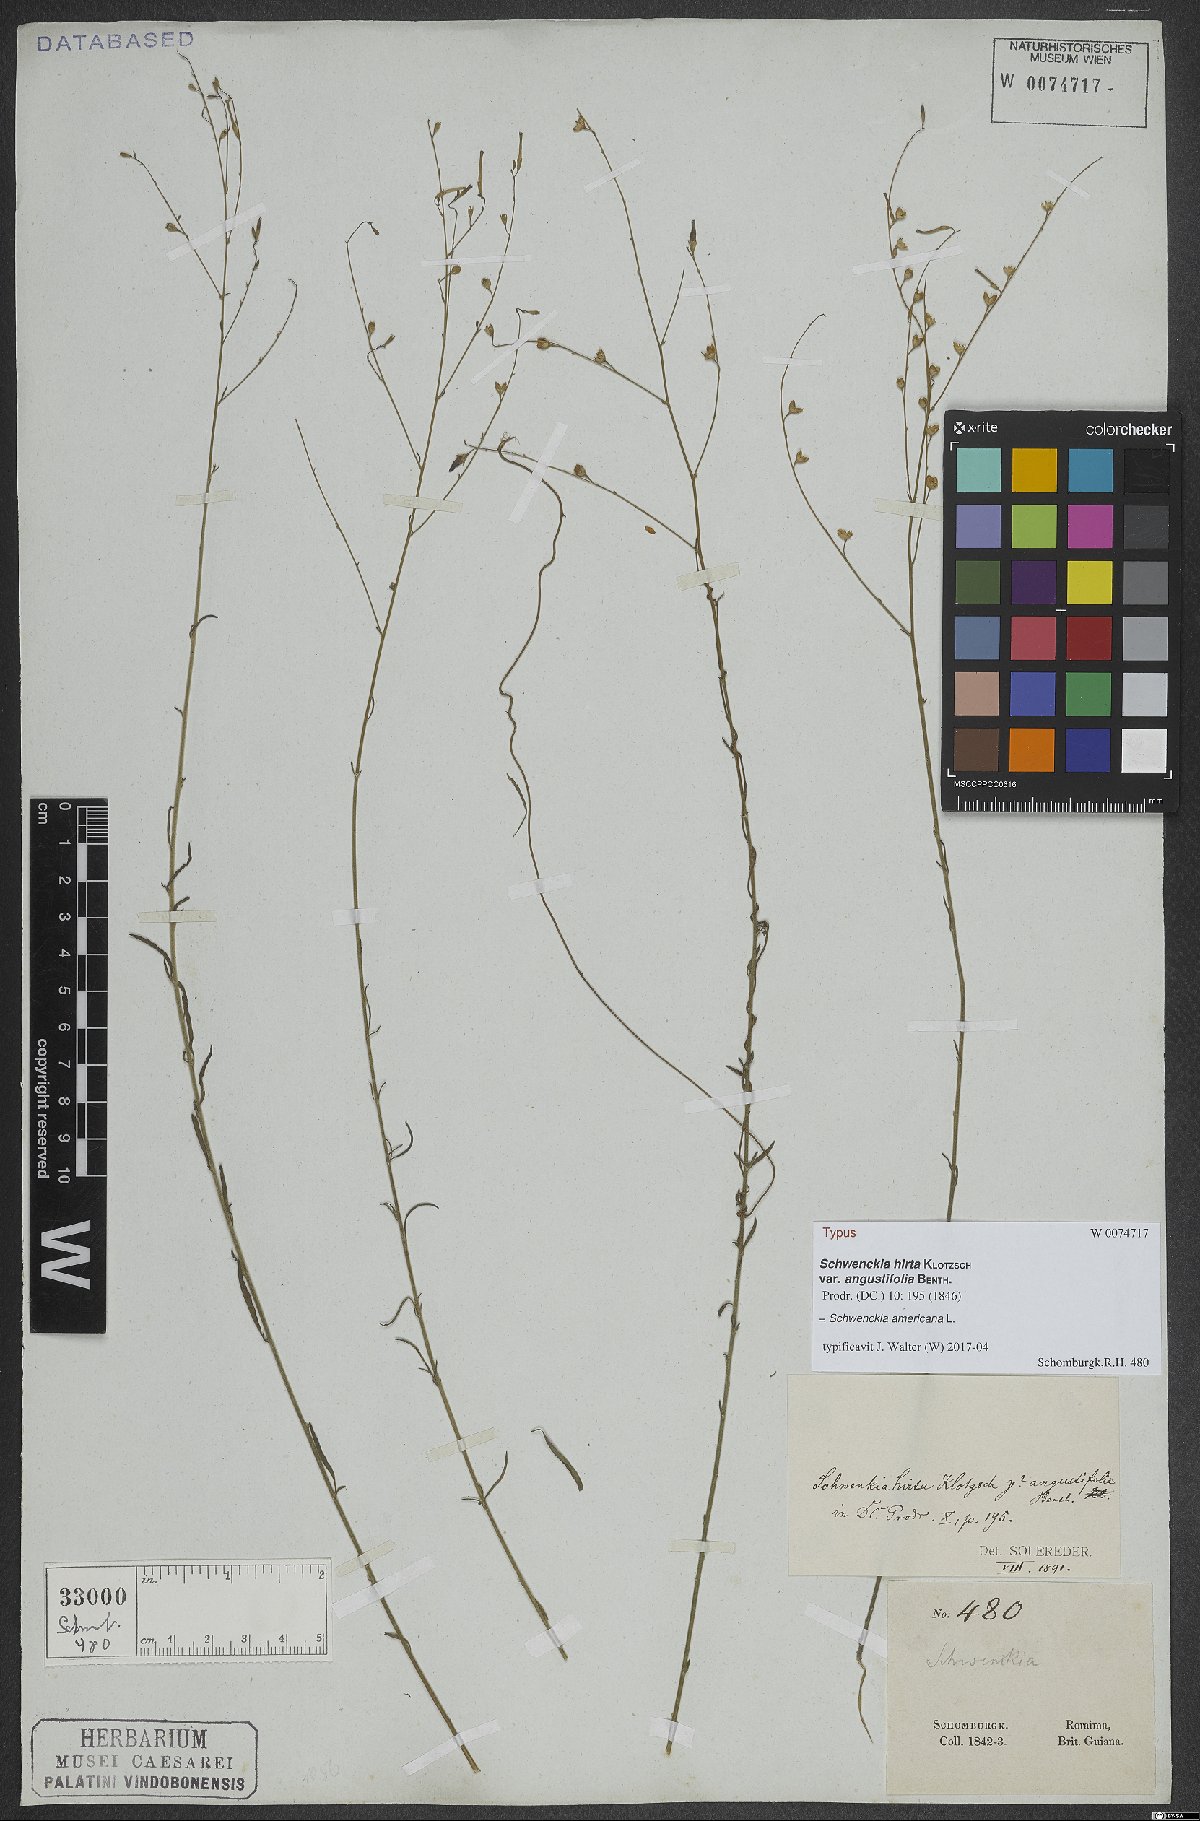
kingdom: Plantae
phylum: Tracheophyta
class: Magnoliopsida
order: Solanales
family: Solanaceae
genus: Schwenckia
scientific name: Schwenckia americana
